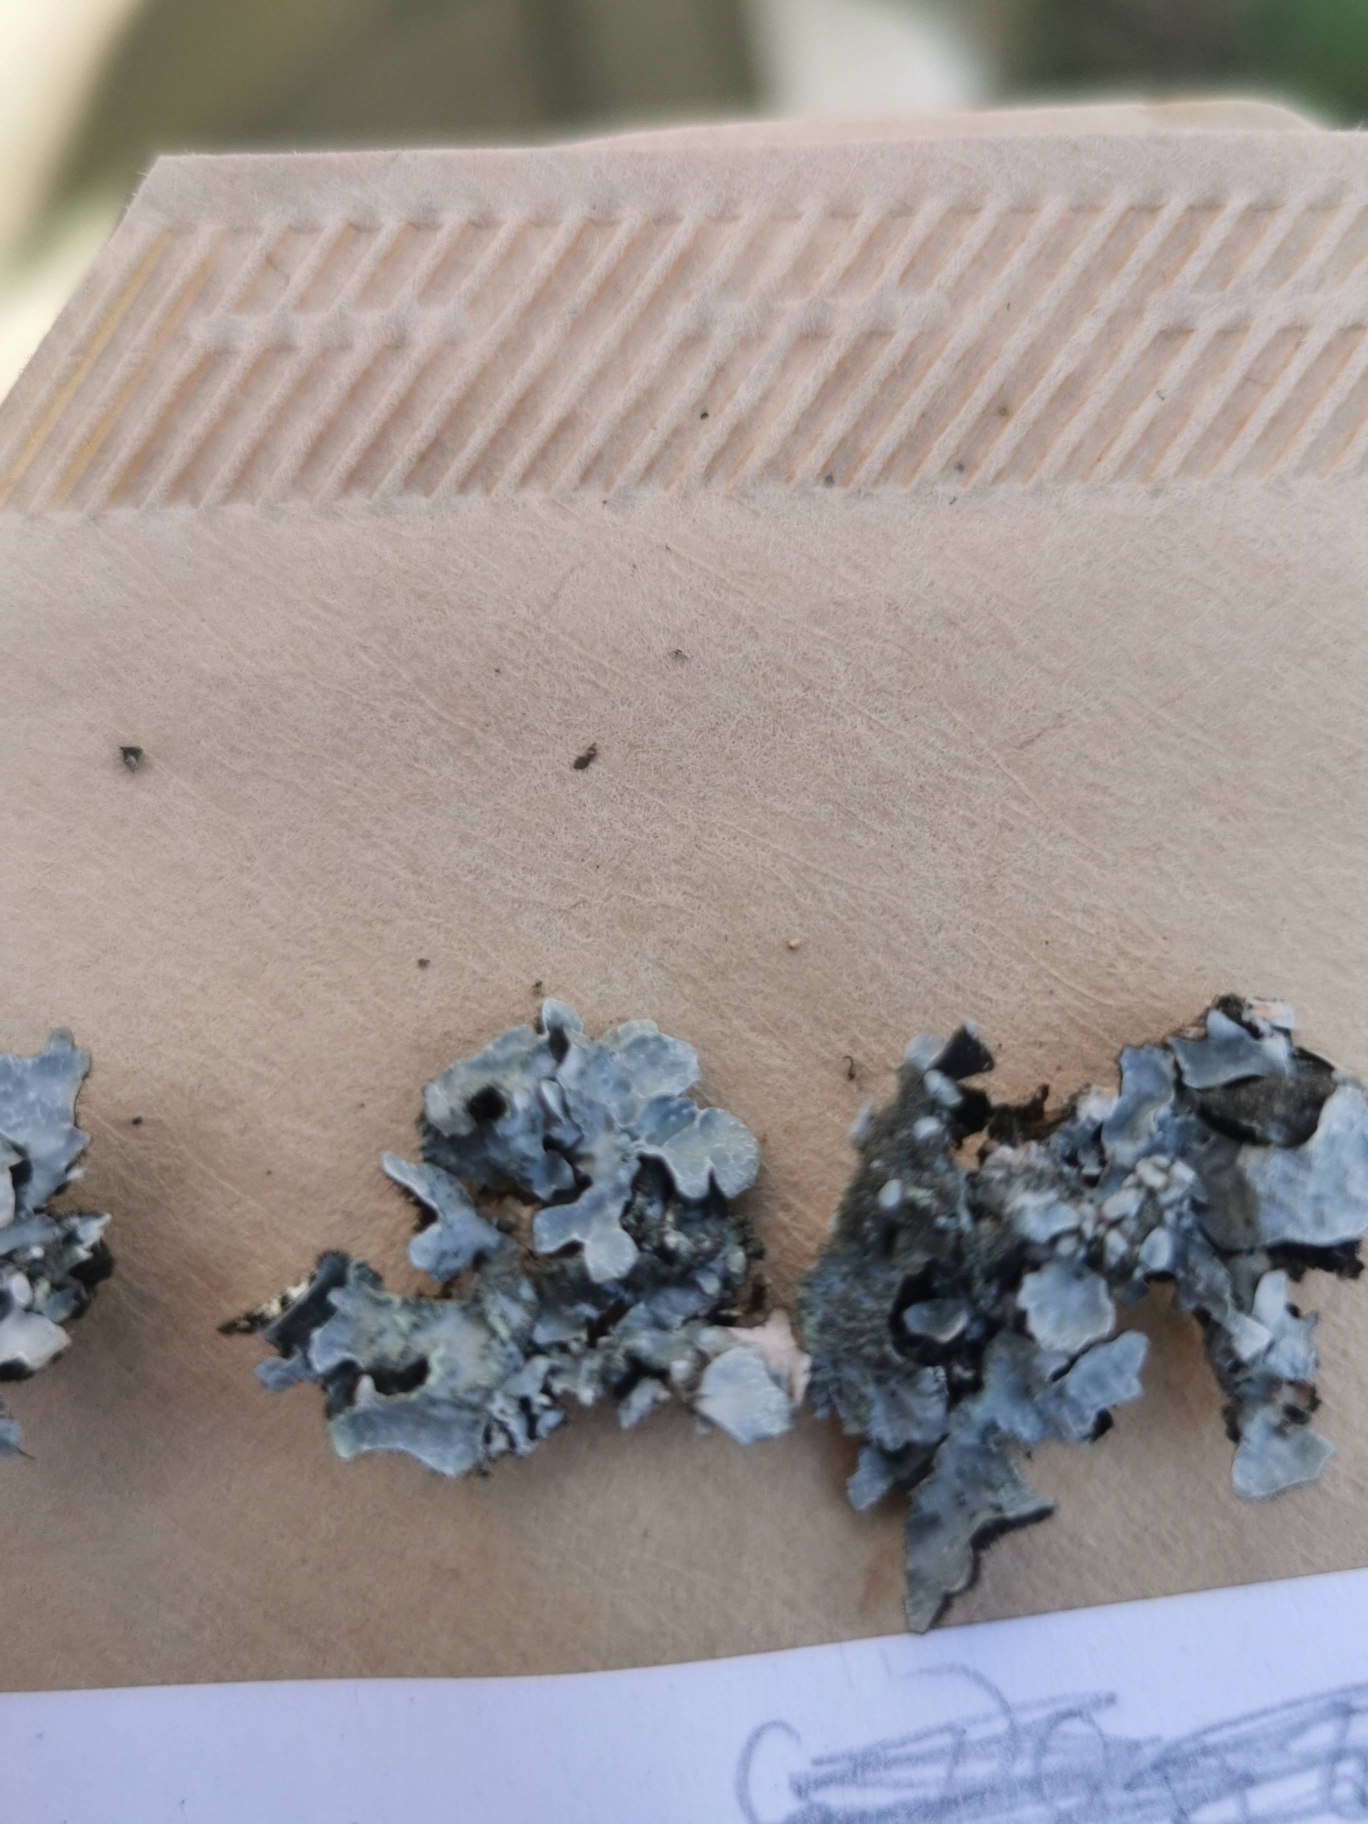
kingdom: Fungi
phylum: Ascomycota
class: Lecanoromycetes
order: Lecanorales
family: Parmeliaceae
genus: Parmelia
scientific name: Parmelia sulcata
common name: Rynket skållav
